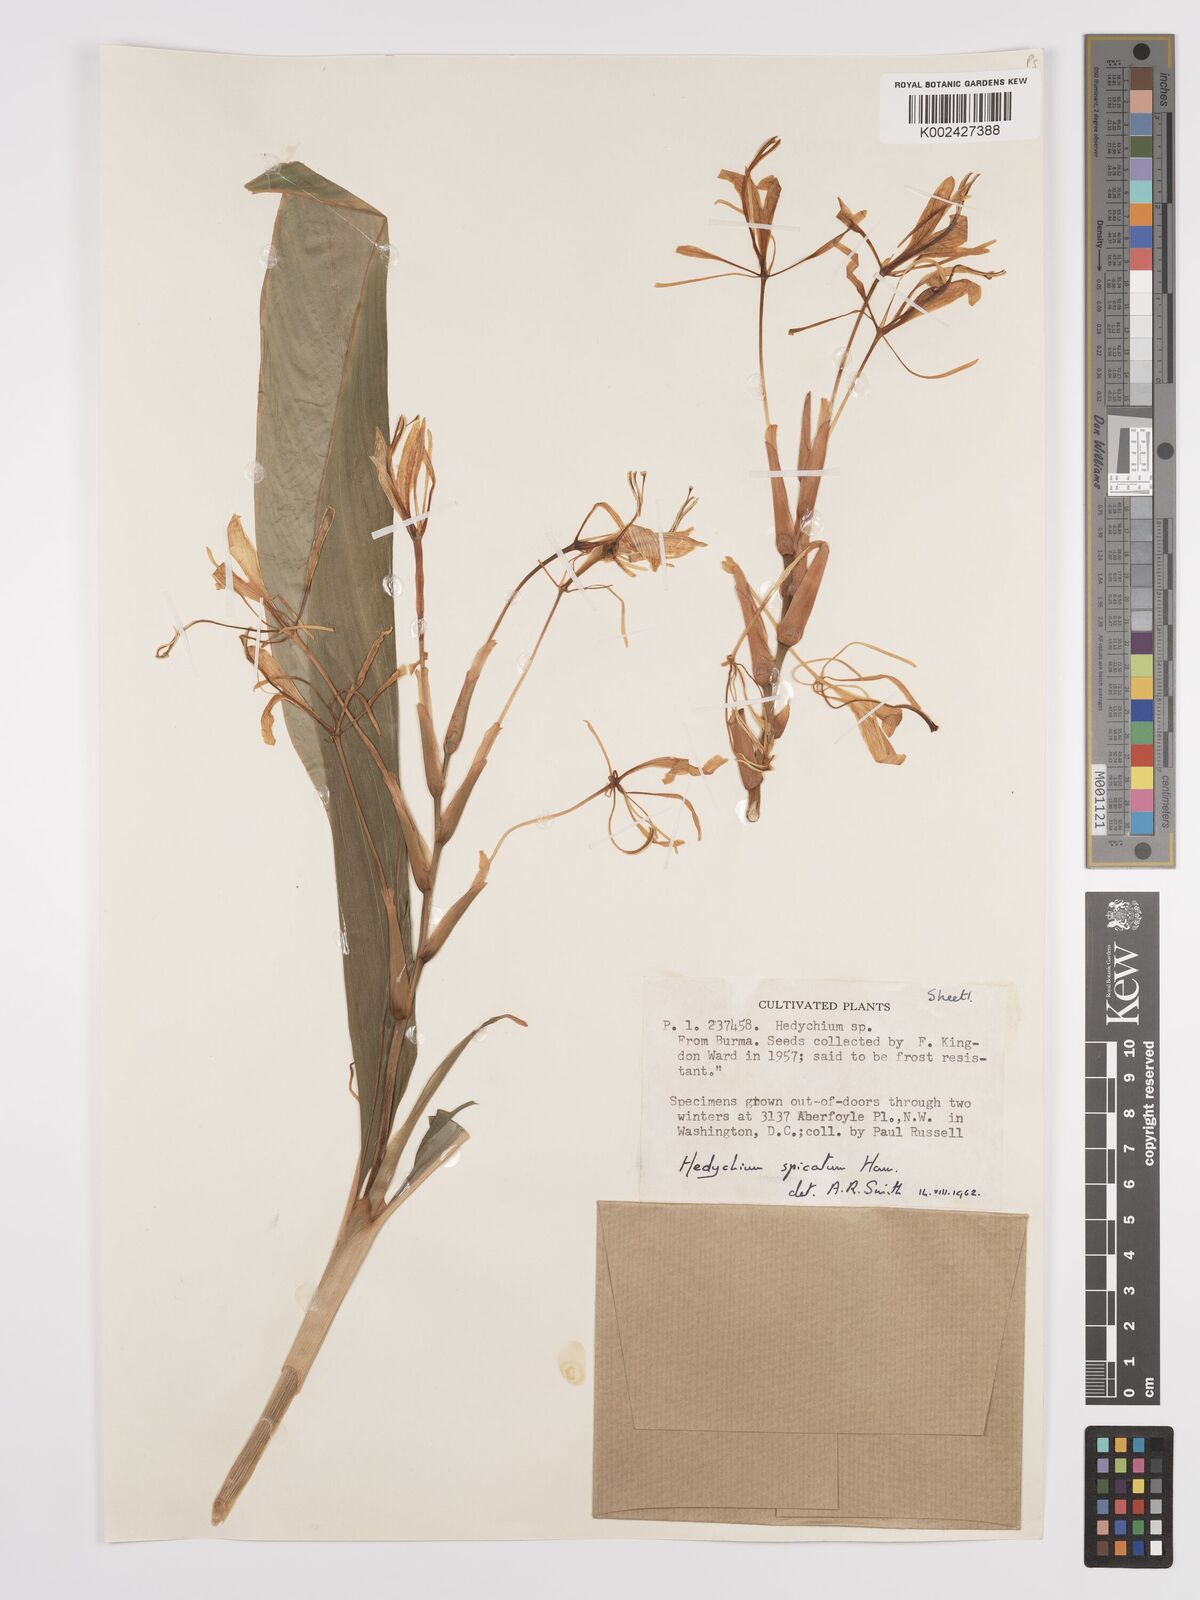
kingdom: Plantae
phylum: Tracheophyta
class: Liliopsida
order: Zingiberales
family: Zingiberaceae
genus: Hedychium
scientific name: Hedychium spicatum
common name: Spiked ginger-lily
